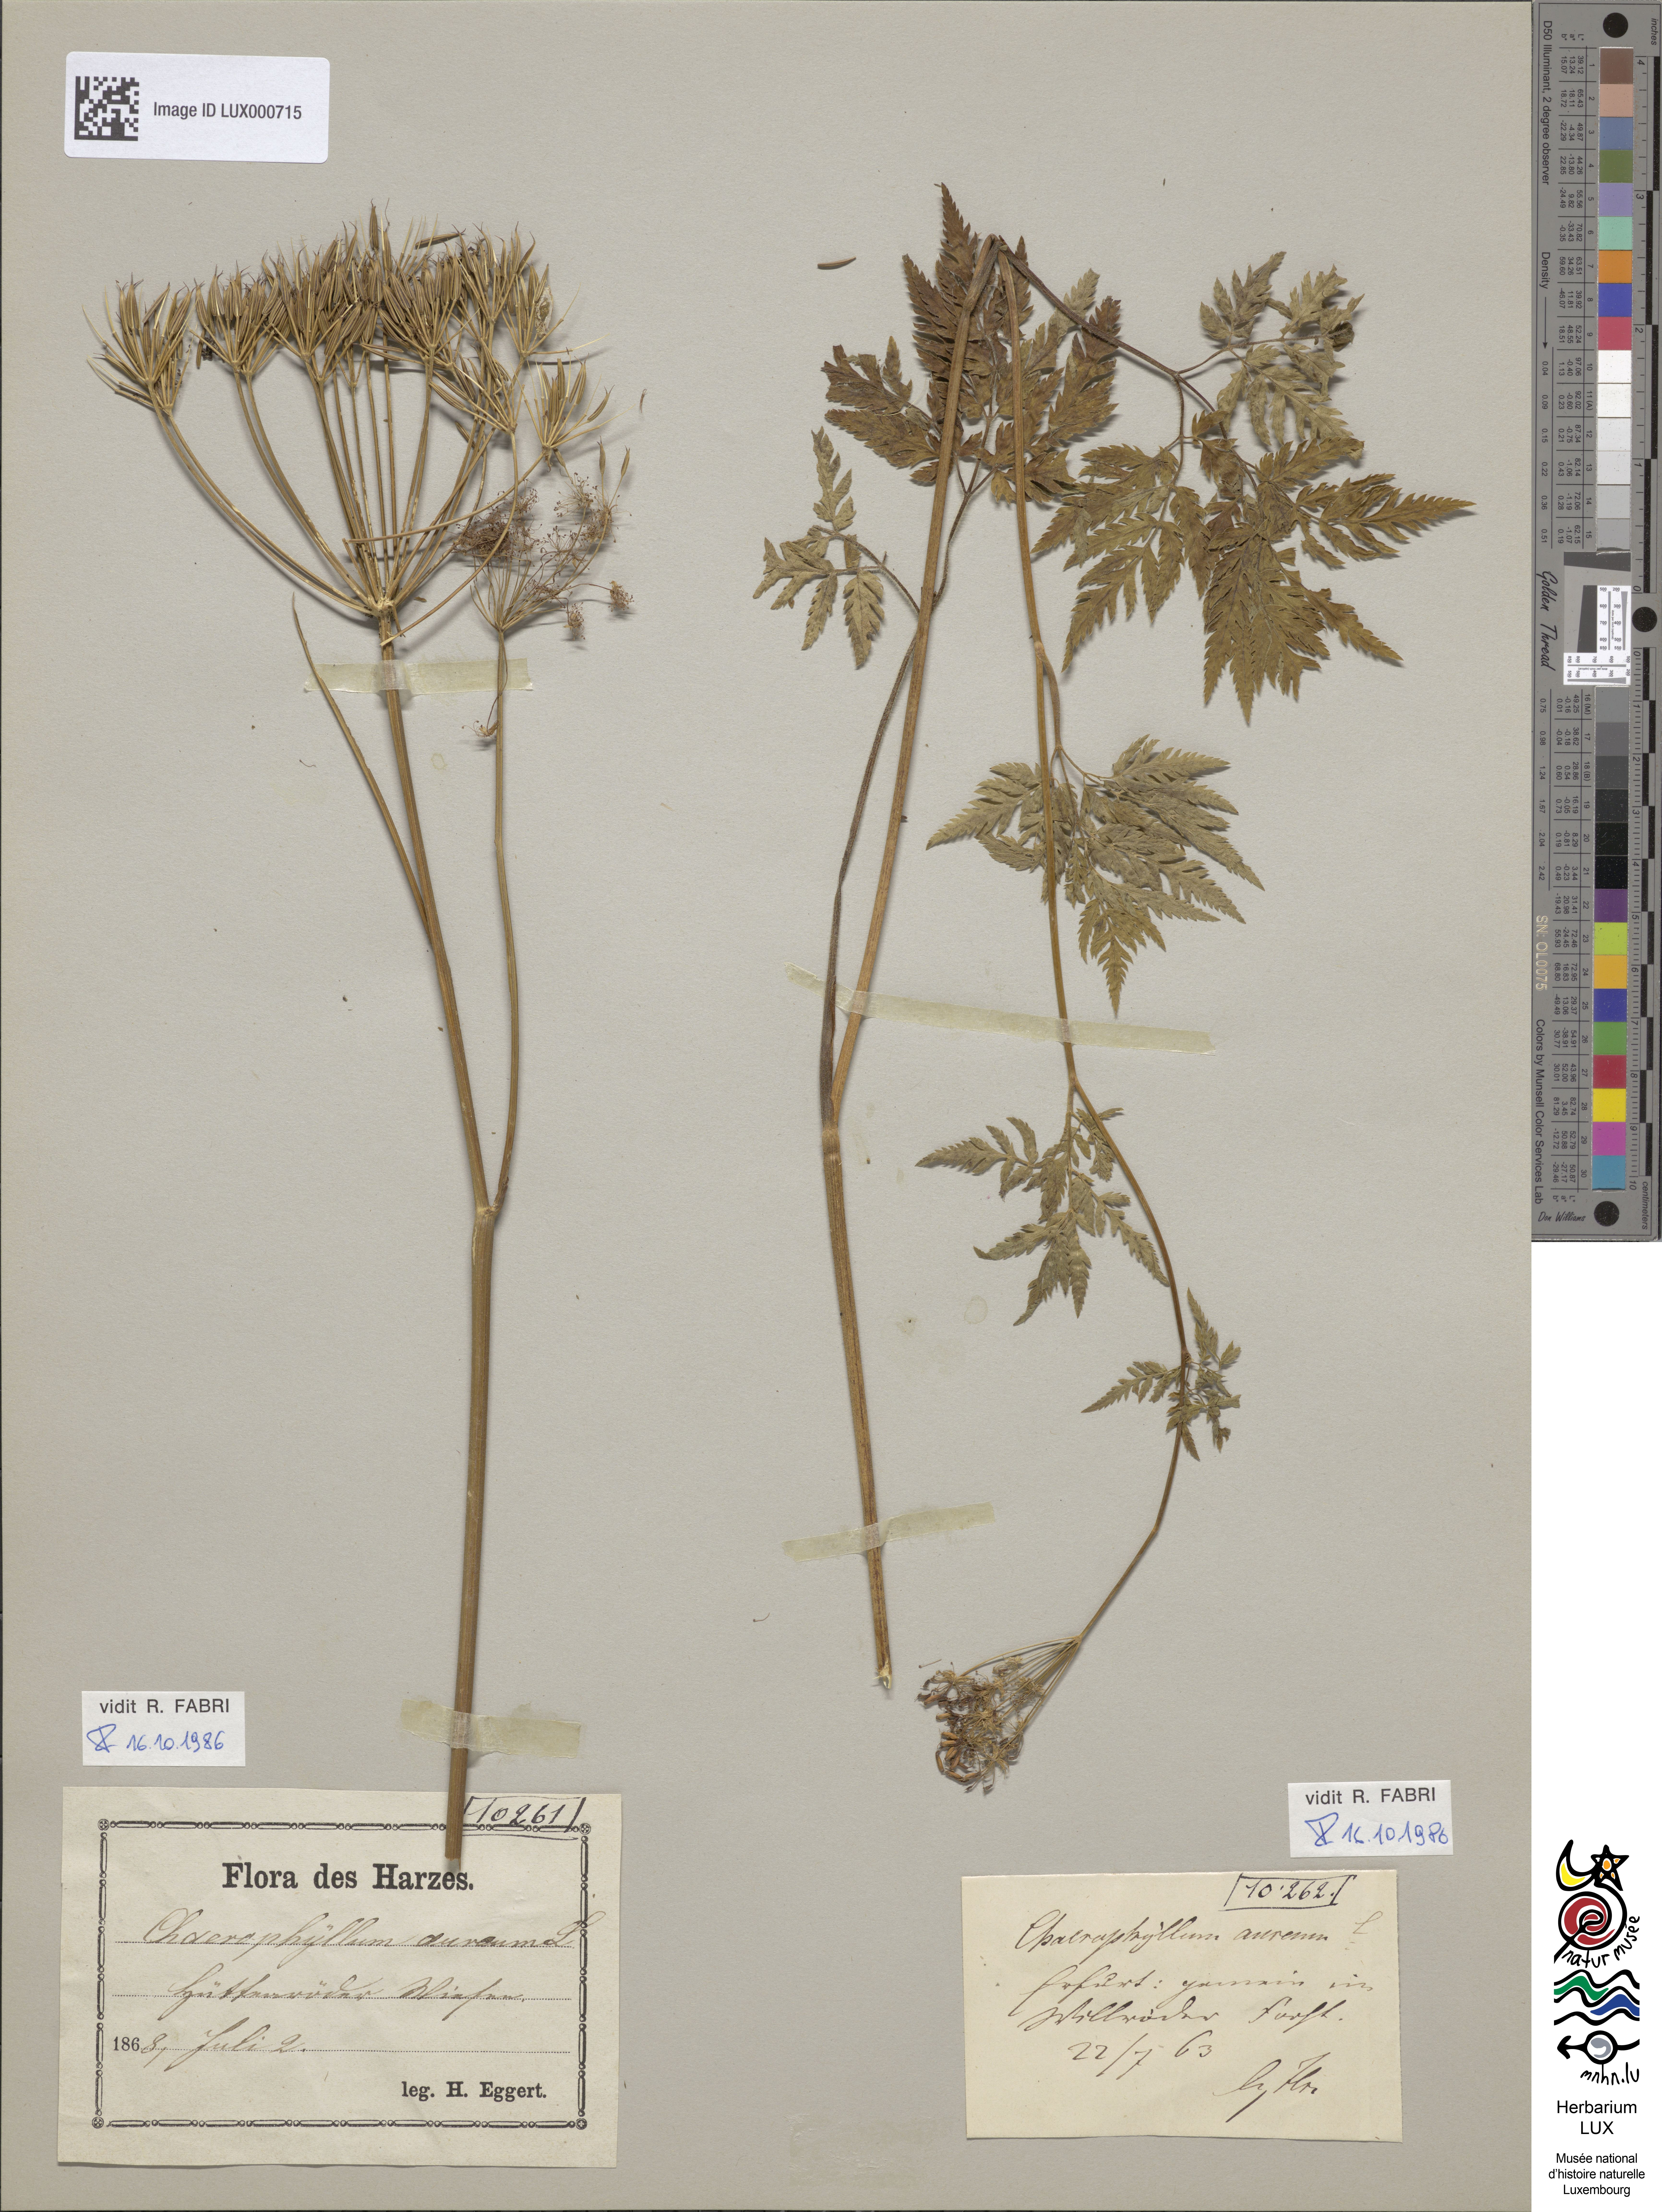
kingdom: Plantae
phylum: Tracheophyta
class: Magnoliopsida
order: Apiales
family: Apiaceae
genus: Chaerophyllum
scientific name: Chaerophyllum aureum
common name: Golden chervil
